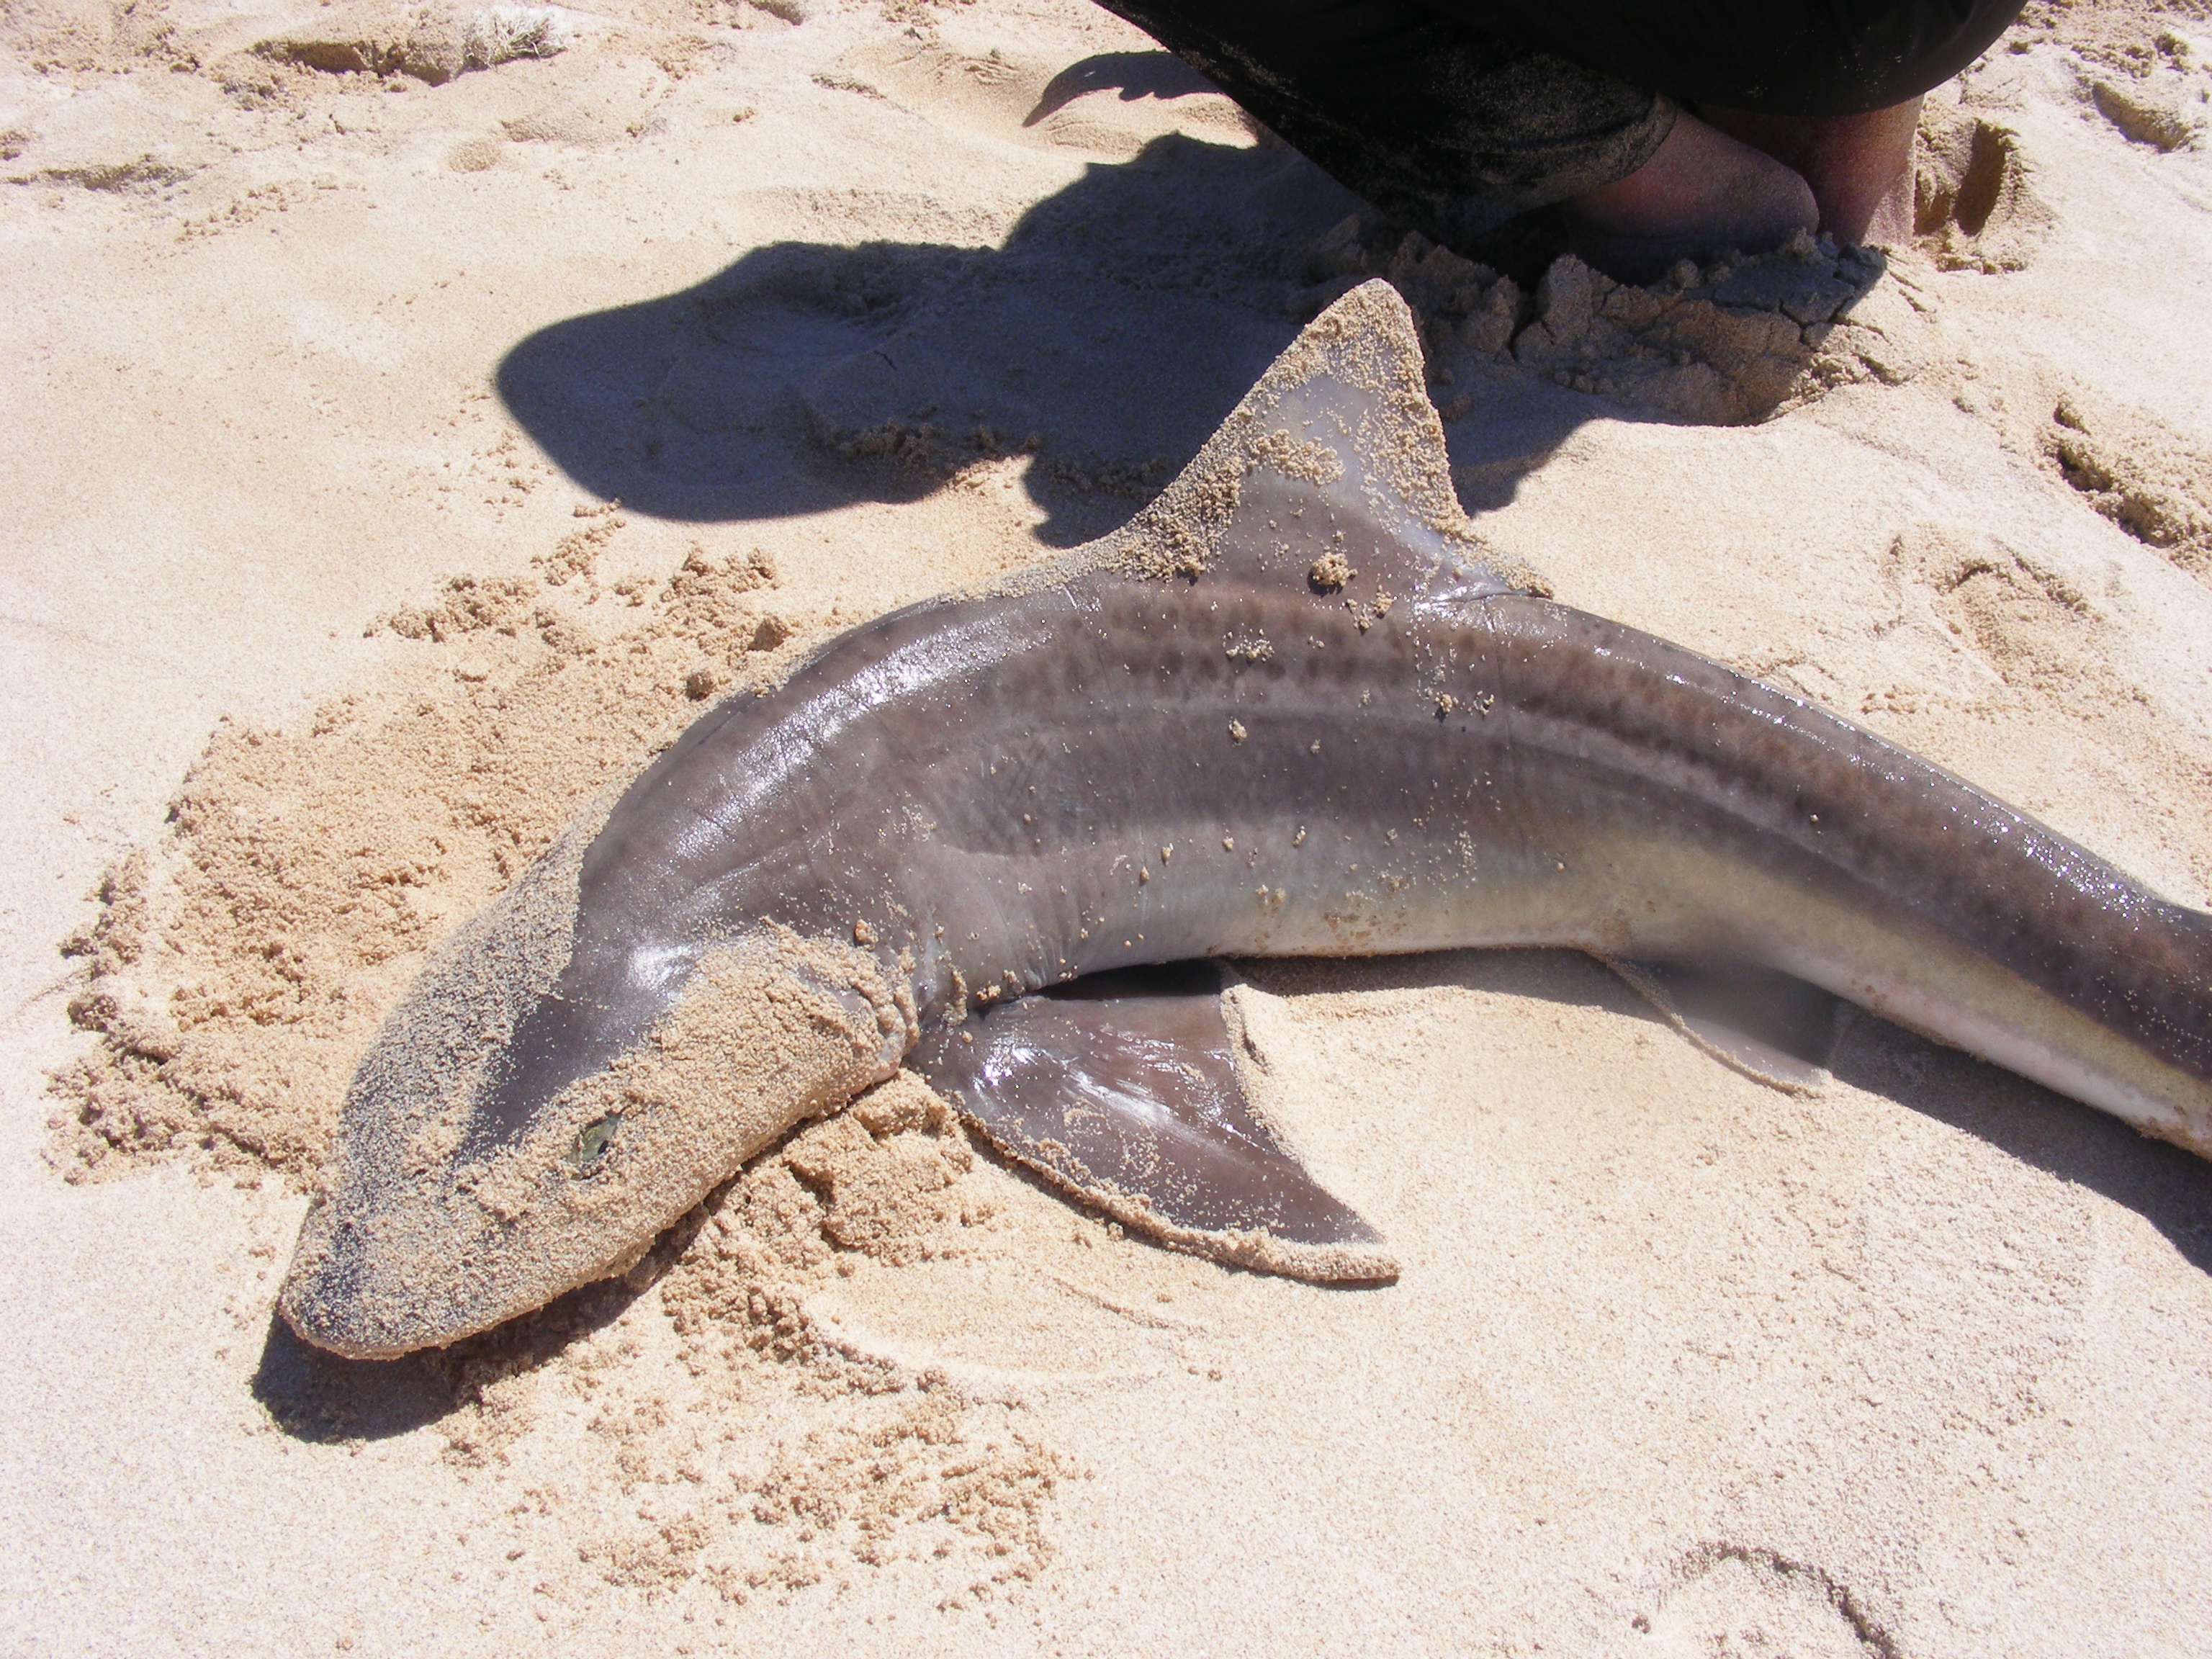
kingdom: Animalia
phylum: Chordata
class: Elasmobranchii
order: Carcharhiniformes
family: Triakidae
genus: Mustelus
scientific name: Mustelus mustelus
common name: Smooth-hound
